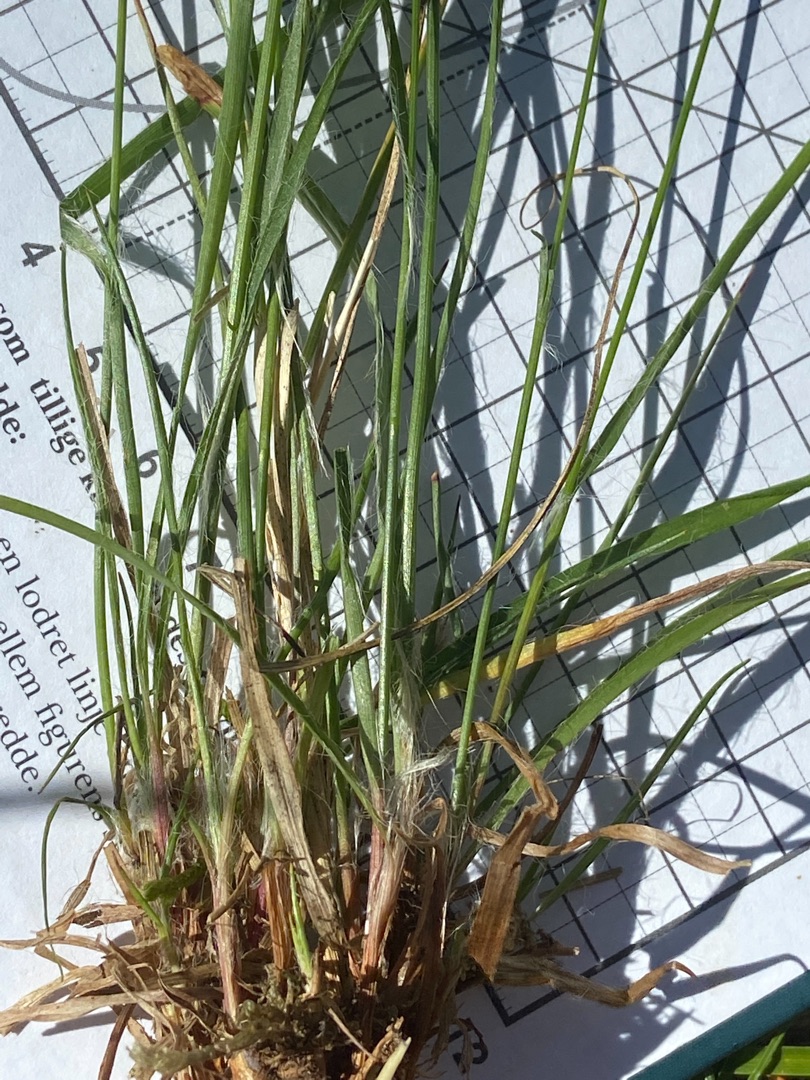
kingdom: Plantae
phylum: Tracheophyta
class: Liliopsida
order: Poales
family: Juncaceae
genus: Luzula
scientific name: Luzula
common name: Frytleslægten
